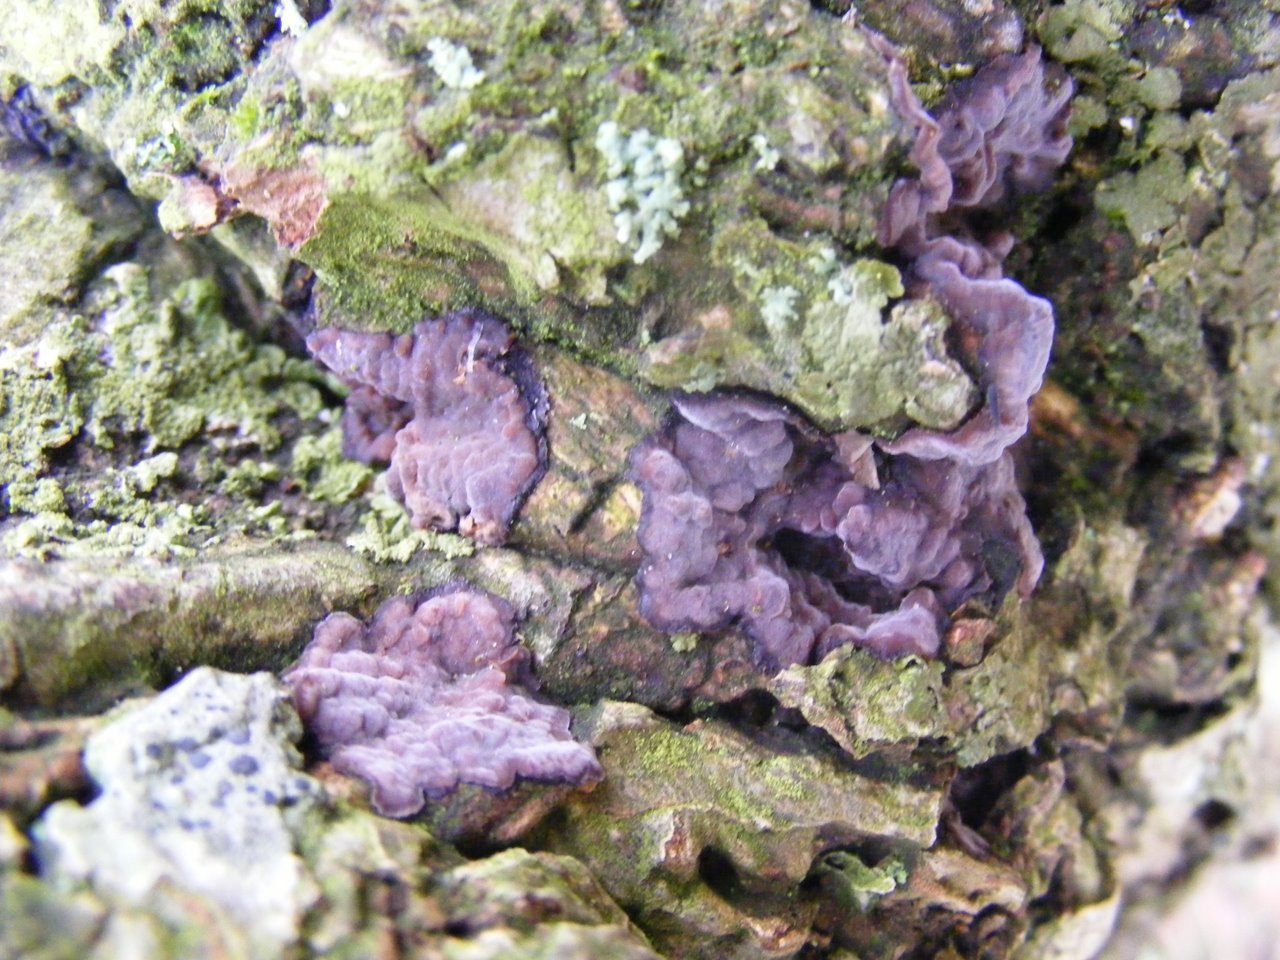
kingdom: Fungi
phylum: Basidiomycota
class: Agaricomycetes
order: Russulales
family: Peniophoraceae
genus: Peniophora
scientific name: Peniophora quercina
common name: ege-voksskind
